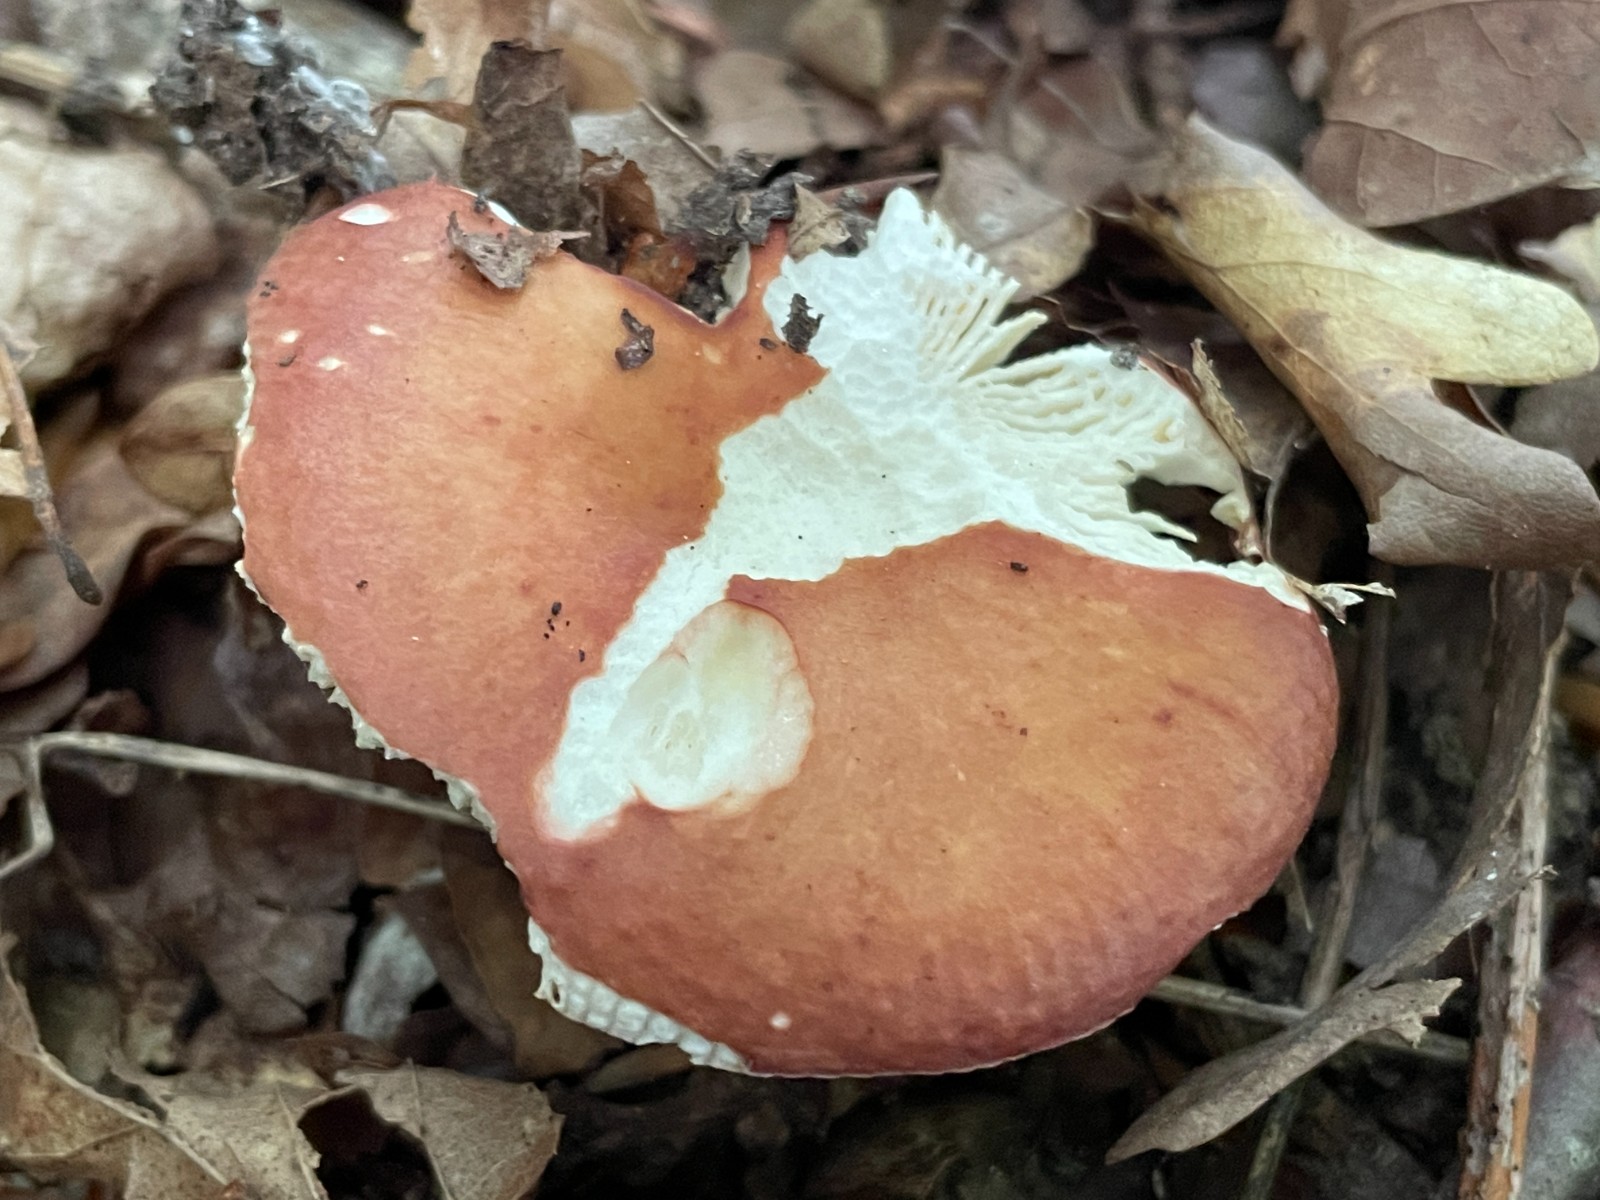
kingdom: Fungi
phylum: Basidiomycota
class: Agaricomycetes
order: Russulales
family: Russulaceae
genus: Russula
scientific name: Russula
